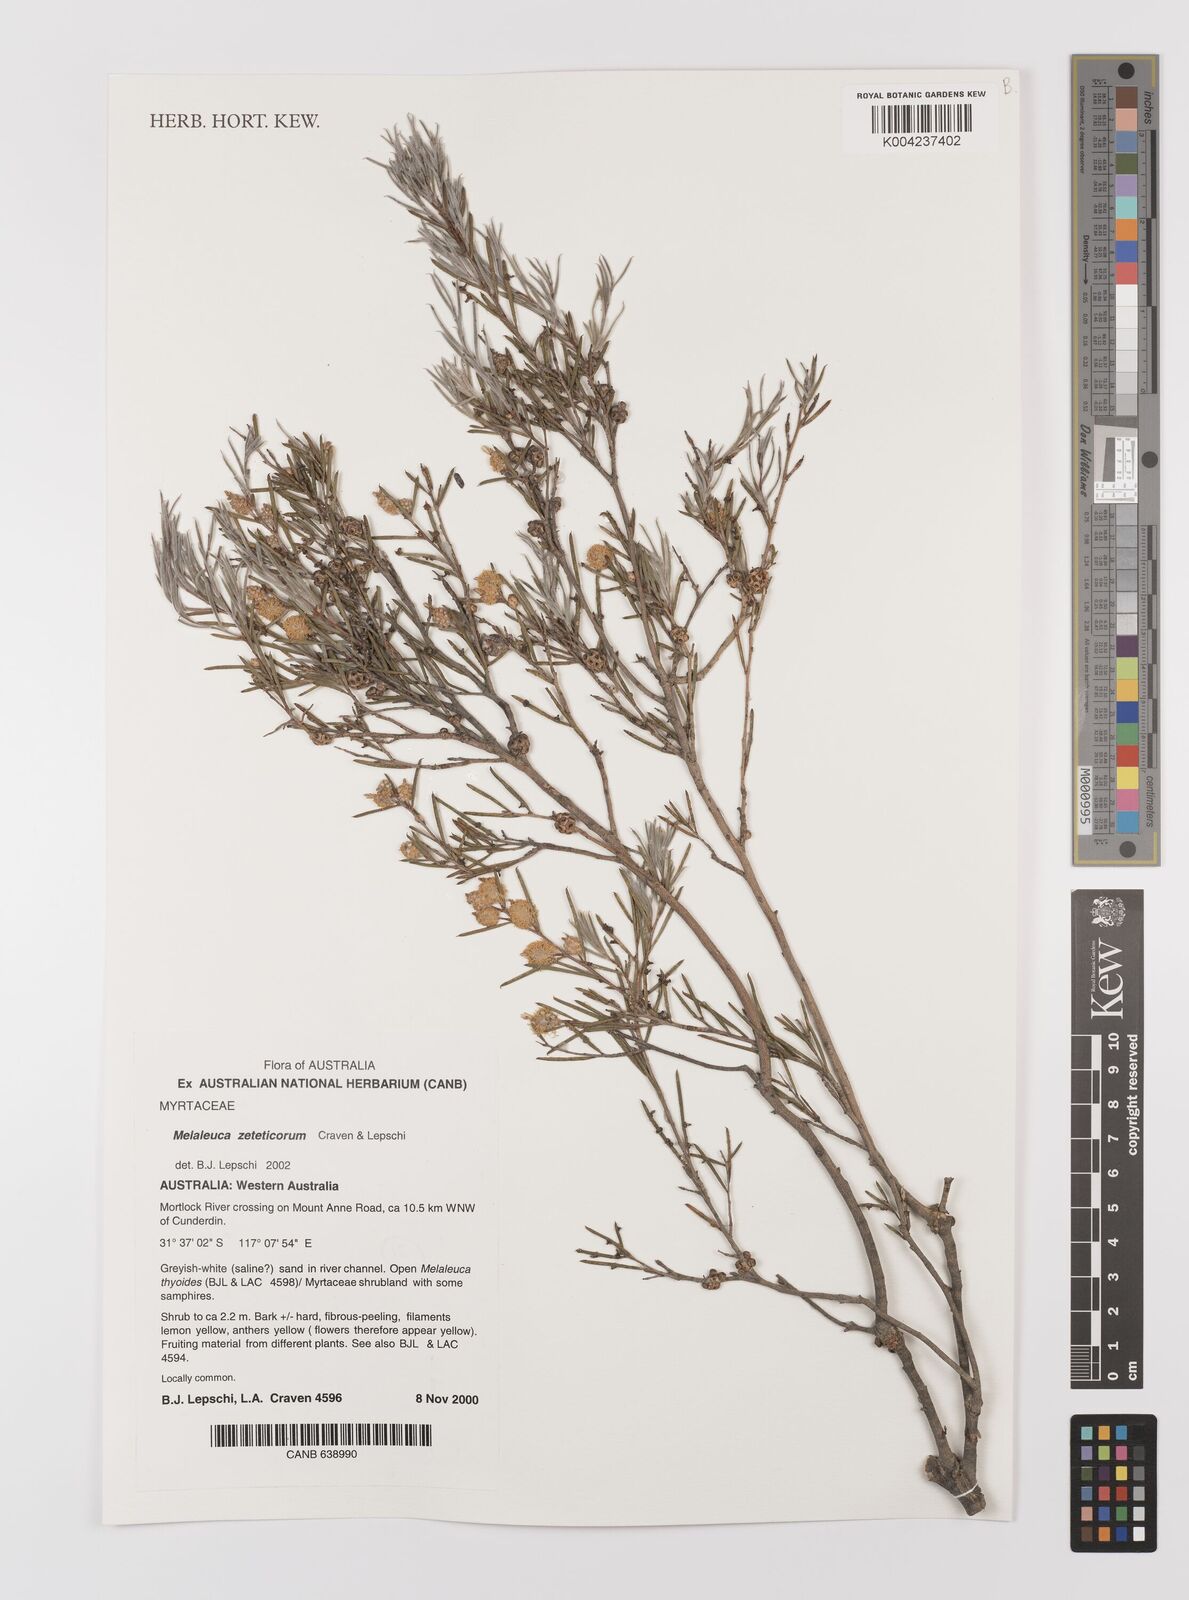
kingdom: Plantae
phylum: Tracheophyta
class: Magnoliopsida
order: Myrtales
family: Myrtaceae
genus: Melaleuca
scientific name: Melaleuca zeteticorum
